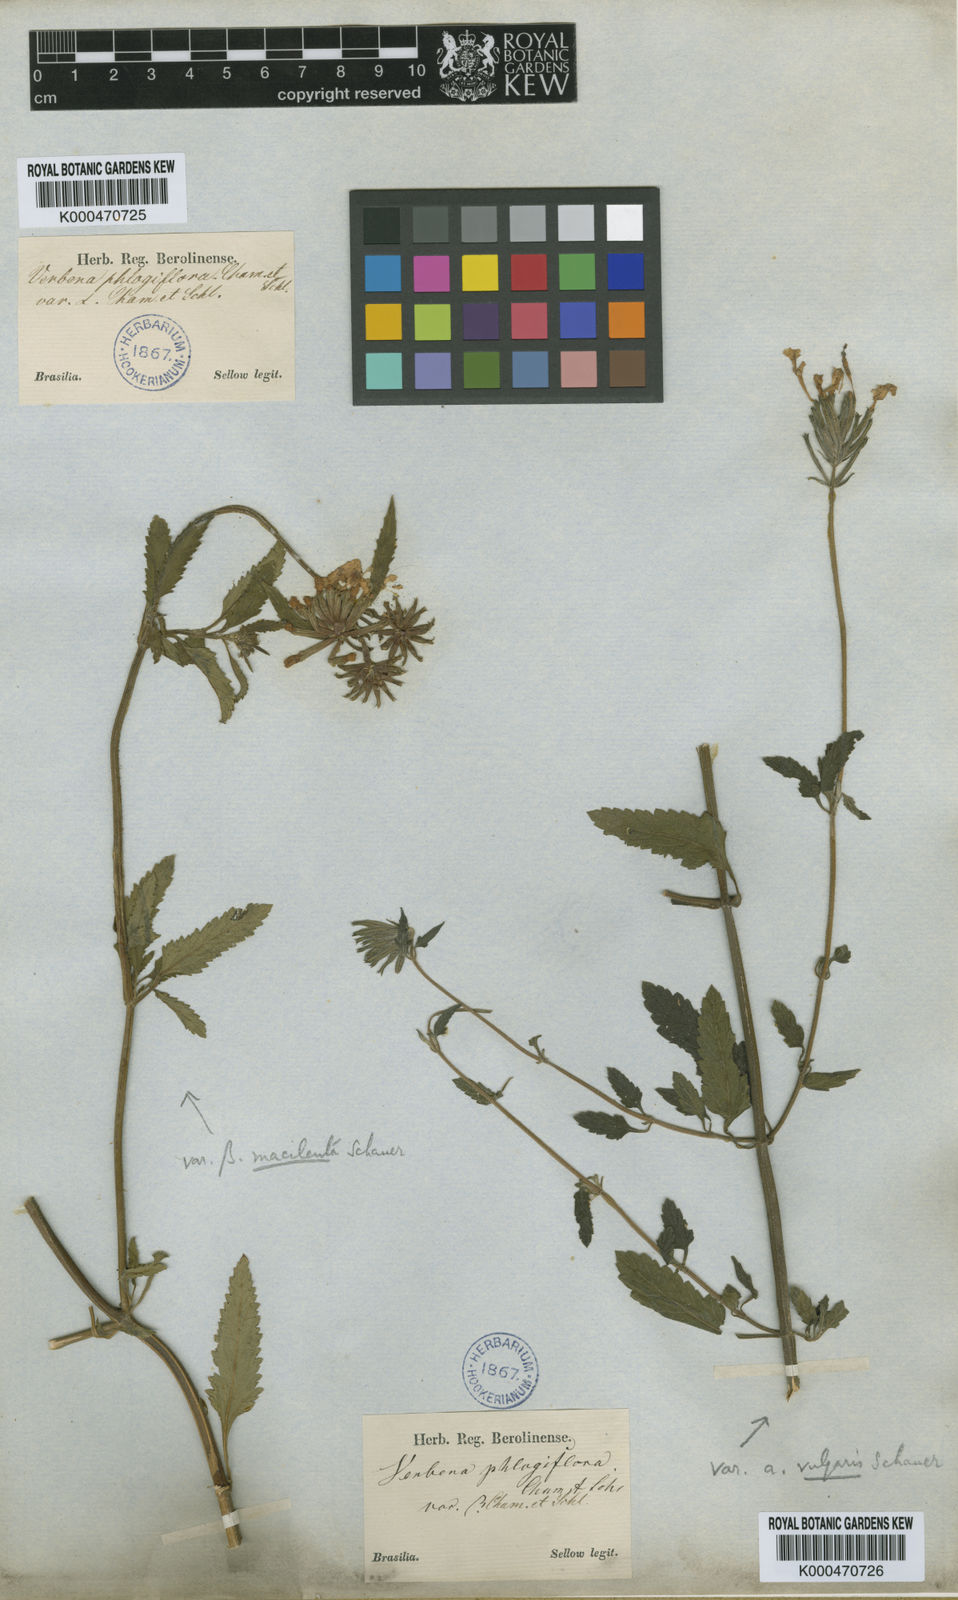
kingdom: Plantae
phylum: Tracheophyta
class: Magnoliopsida
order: Lamiales
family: Verbenaceae
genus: Verbena
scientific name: Verbena phlogiflora
